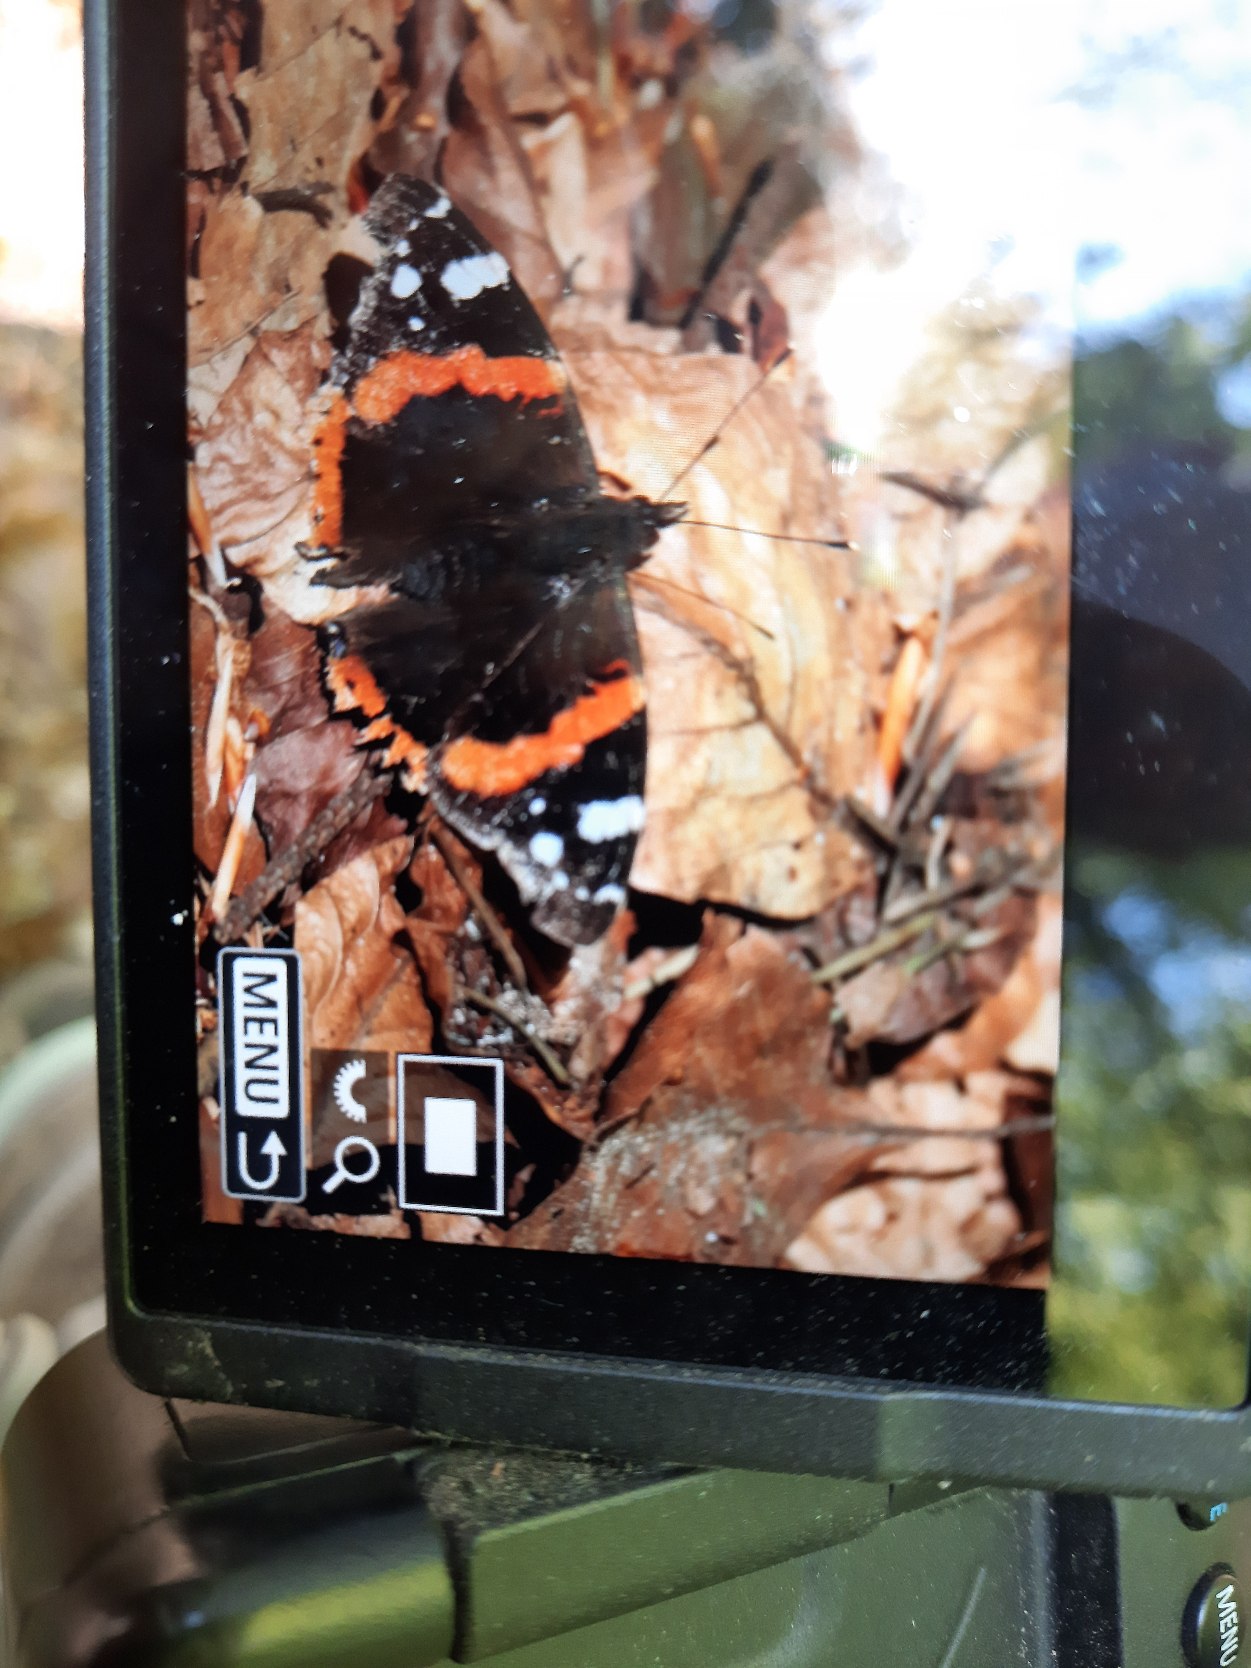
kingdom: Animalia
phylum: Arthropoda
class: Insecta
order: Lepidoptera
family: Nymphalidae
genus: Vanessa
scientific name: Vanessa atalanta
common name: Admiral
